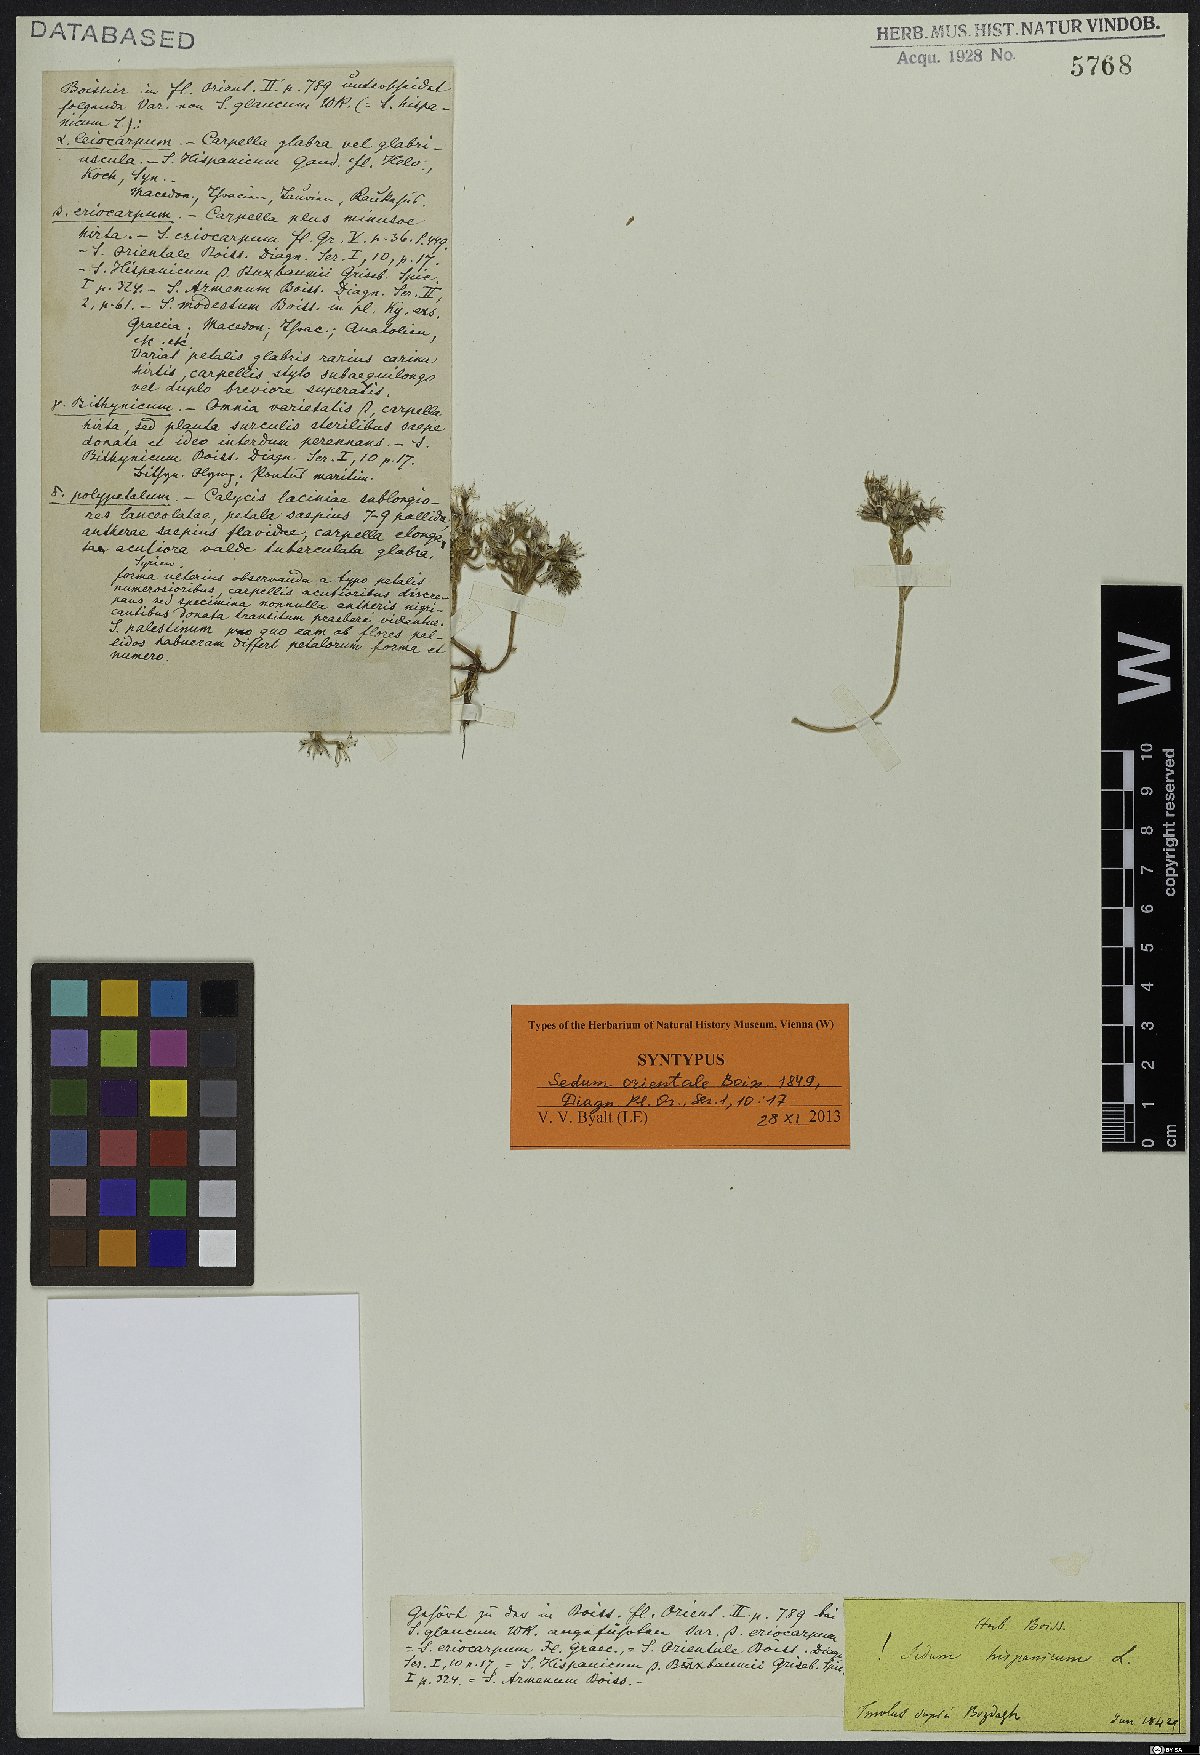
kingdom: Plantae
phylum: Tracheophyta
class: Magnoliopsida
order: Saxifragales
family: Crassulaceae
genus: Sedum
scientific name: Sedum hispanicum
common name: Spanish stonecrop
